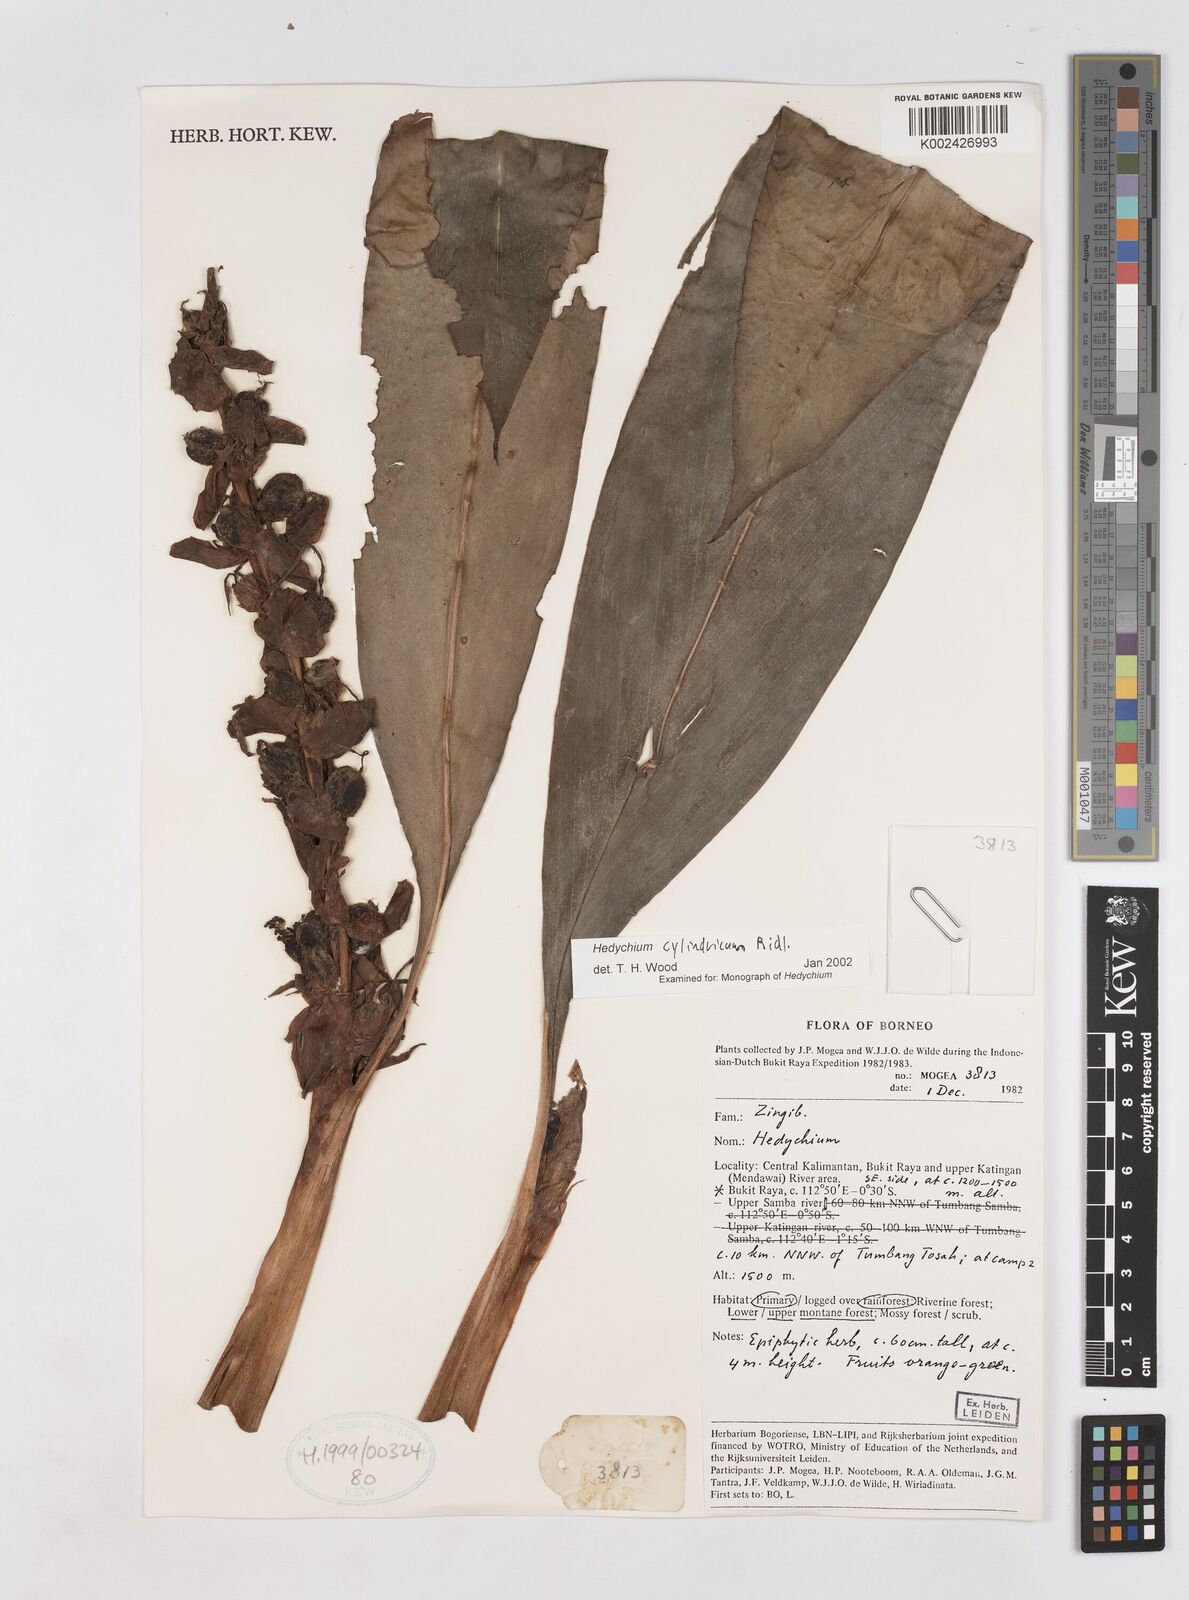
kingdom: Plantae
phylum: Tracheophyta
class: Liliopsida
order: Zingiberales
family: Zingiberaceae
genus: Hedychium
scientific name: Hedychium cylindricum
